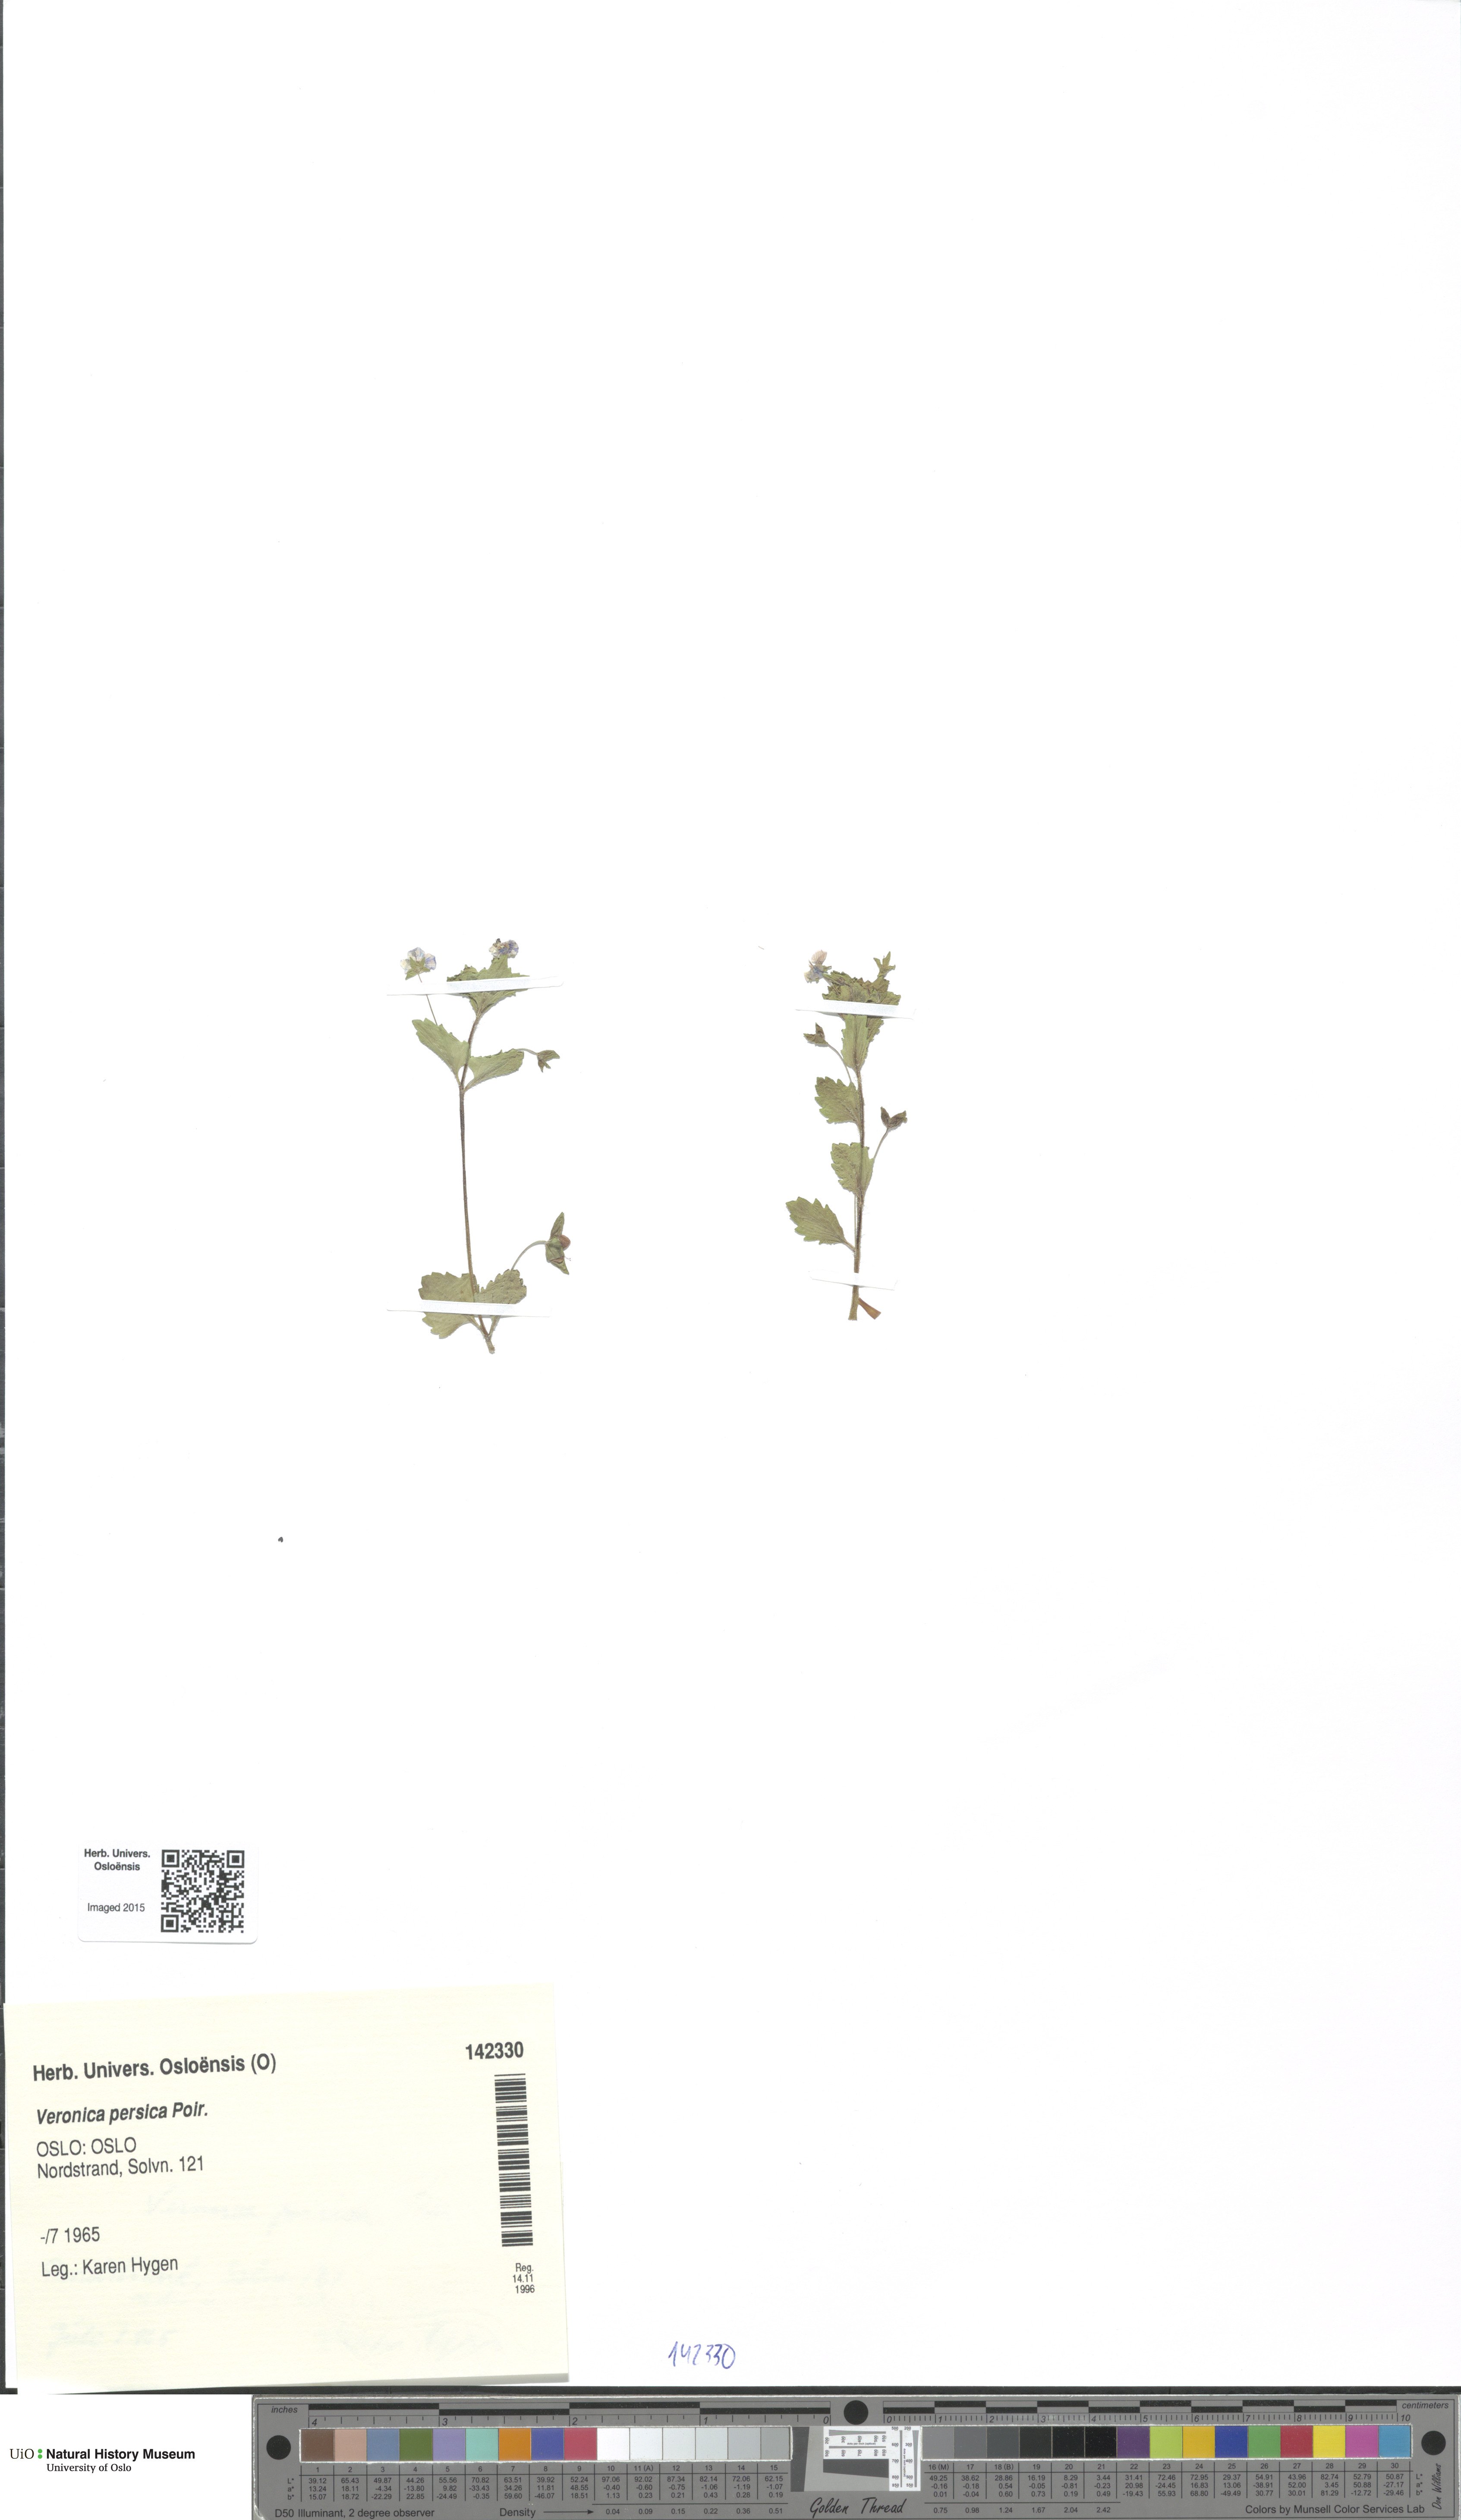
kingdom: Plantae
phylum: Tracheophyta
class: Magnoliopsida
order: Lamiales
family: Plantaginaceae
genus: Veronica
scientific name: Veronica persica
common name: Common field-speedwell
